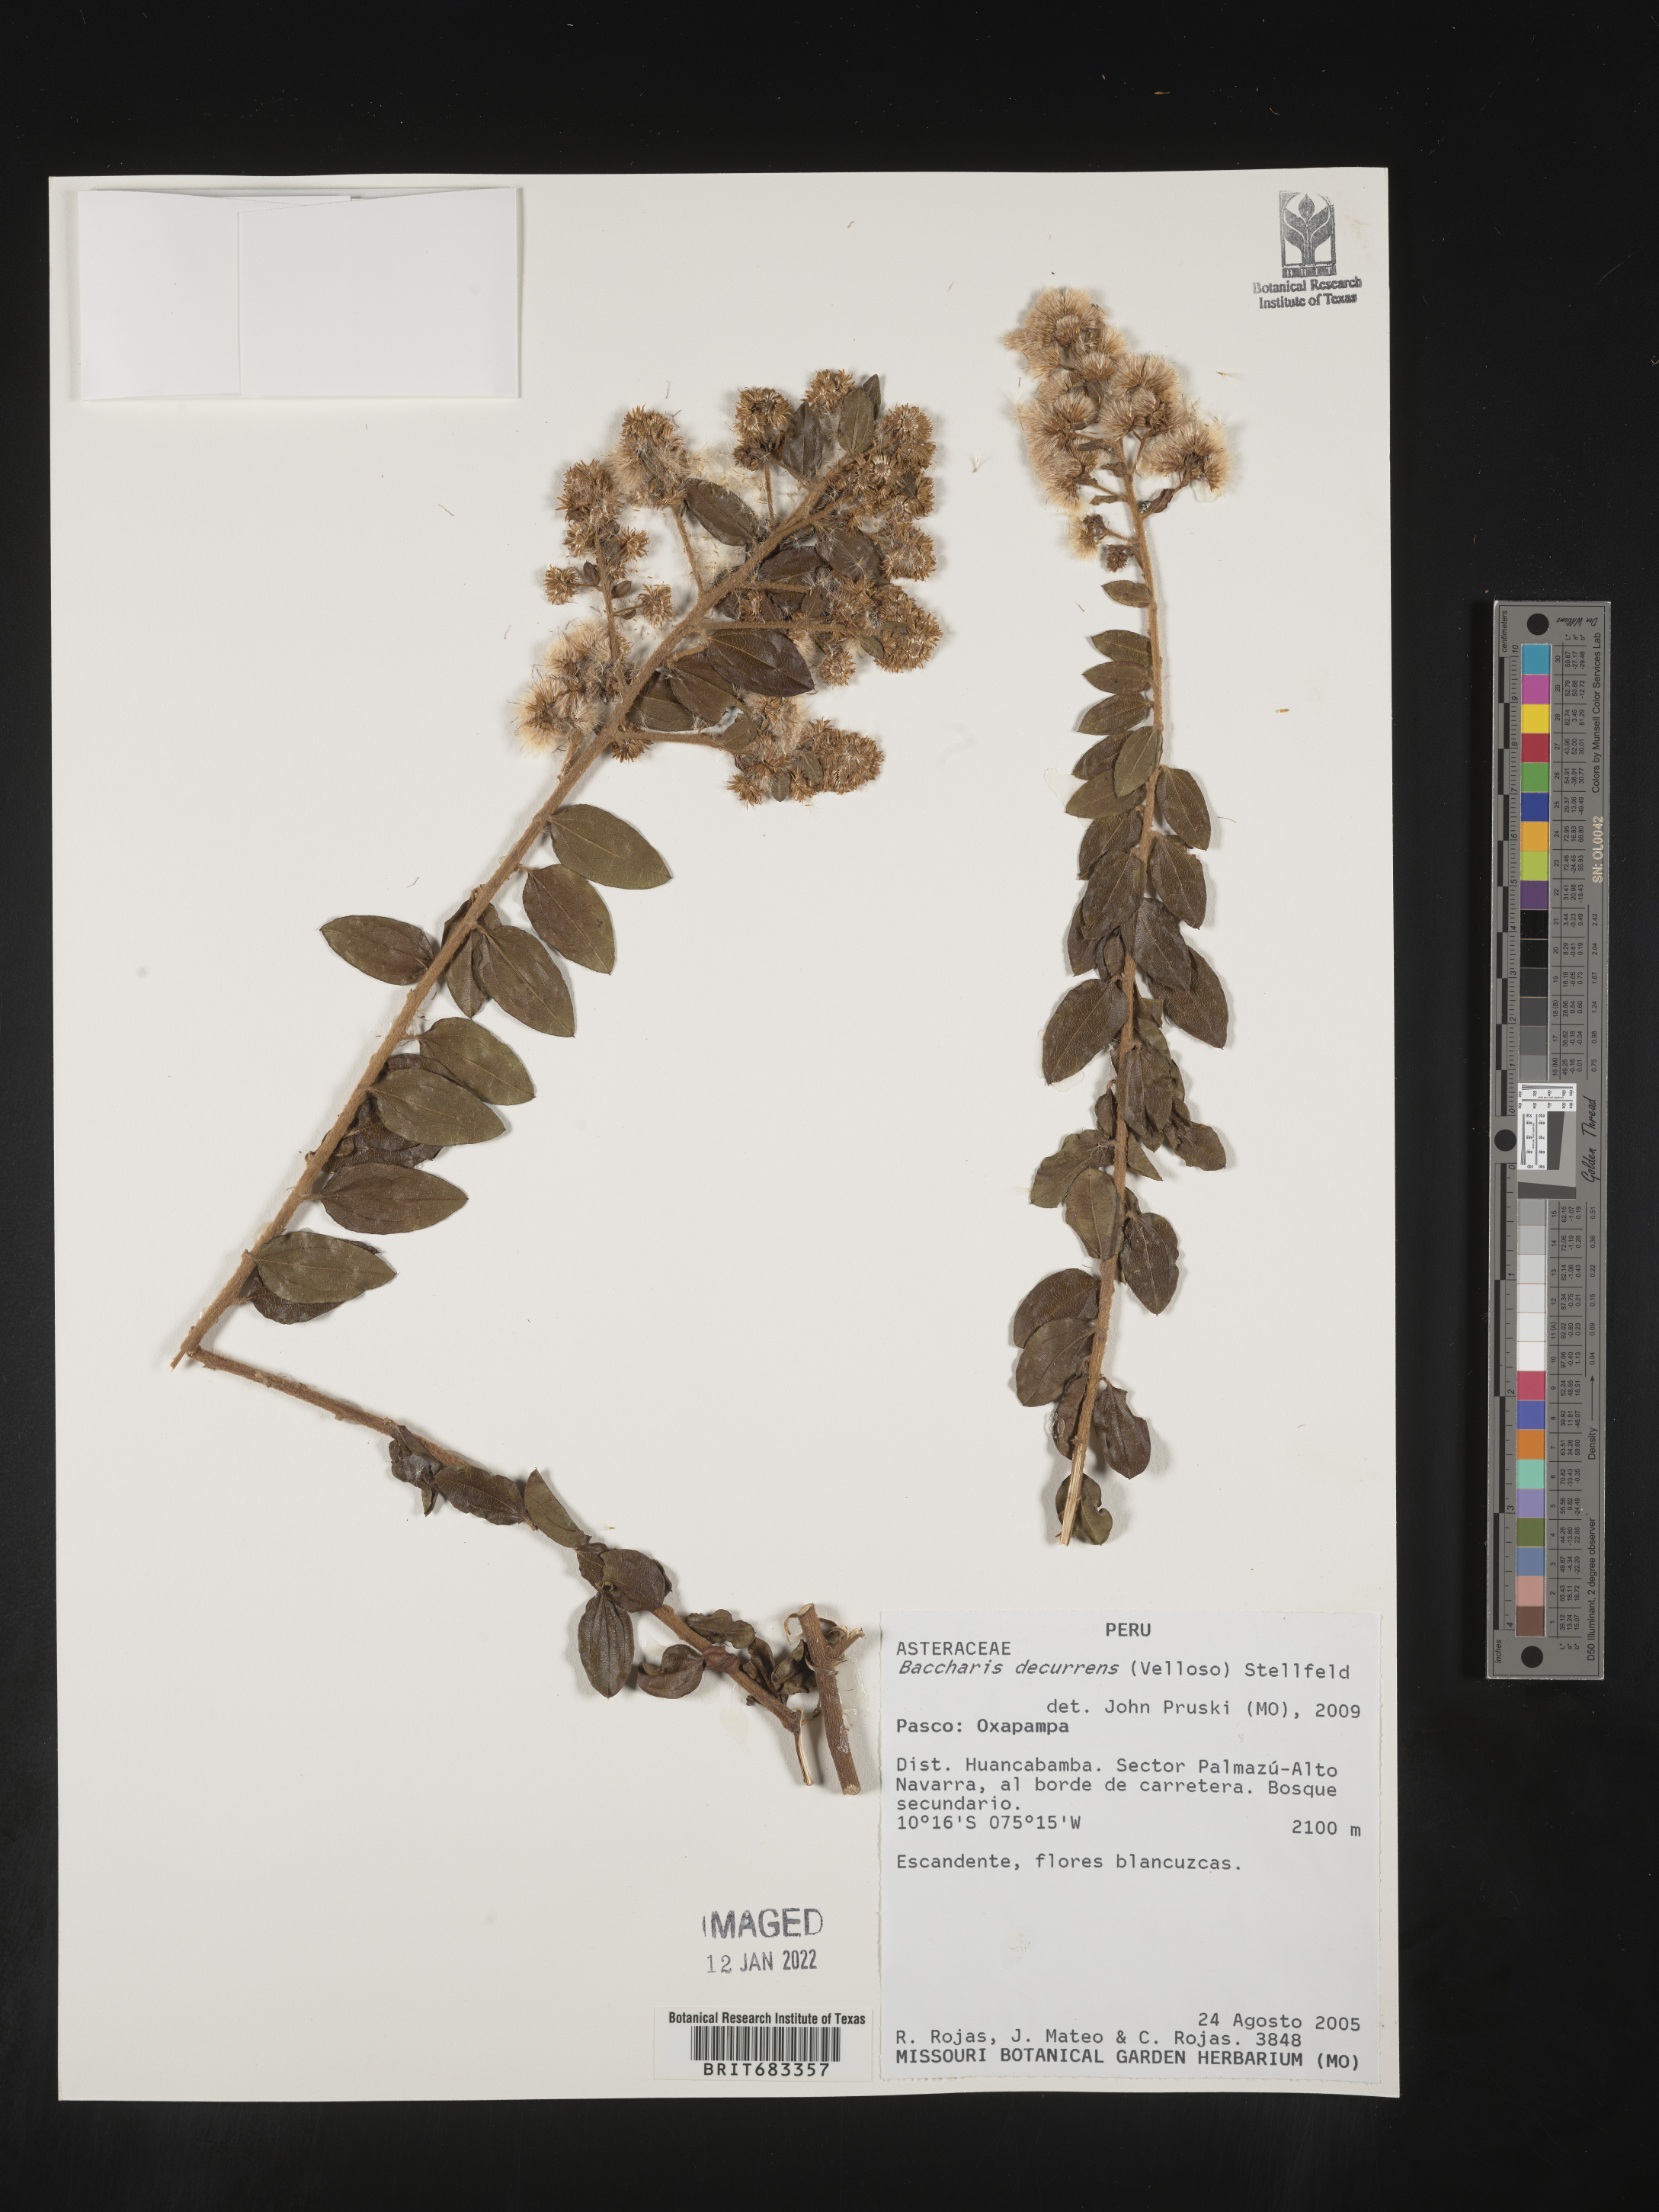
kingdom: Plantae
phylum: Tracheophyta
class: Magnoliopsida
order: Asterales
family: Asteraceae
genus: Baccharis
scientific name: Baccharis
